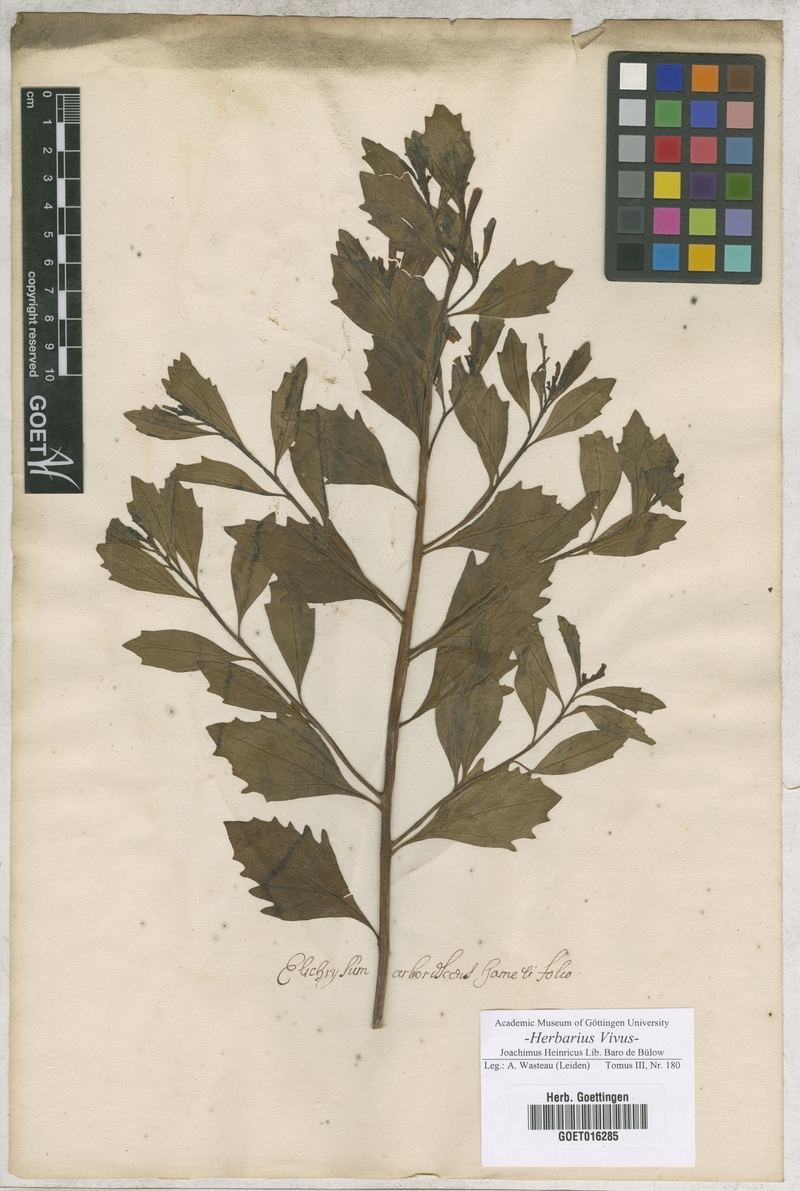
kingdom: Plantae
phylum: Tracheophyta
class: Magnoliopsida
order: Asterales
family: Asteraceae
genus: Helichrysum
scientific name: Helichrysum
